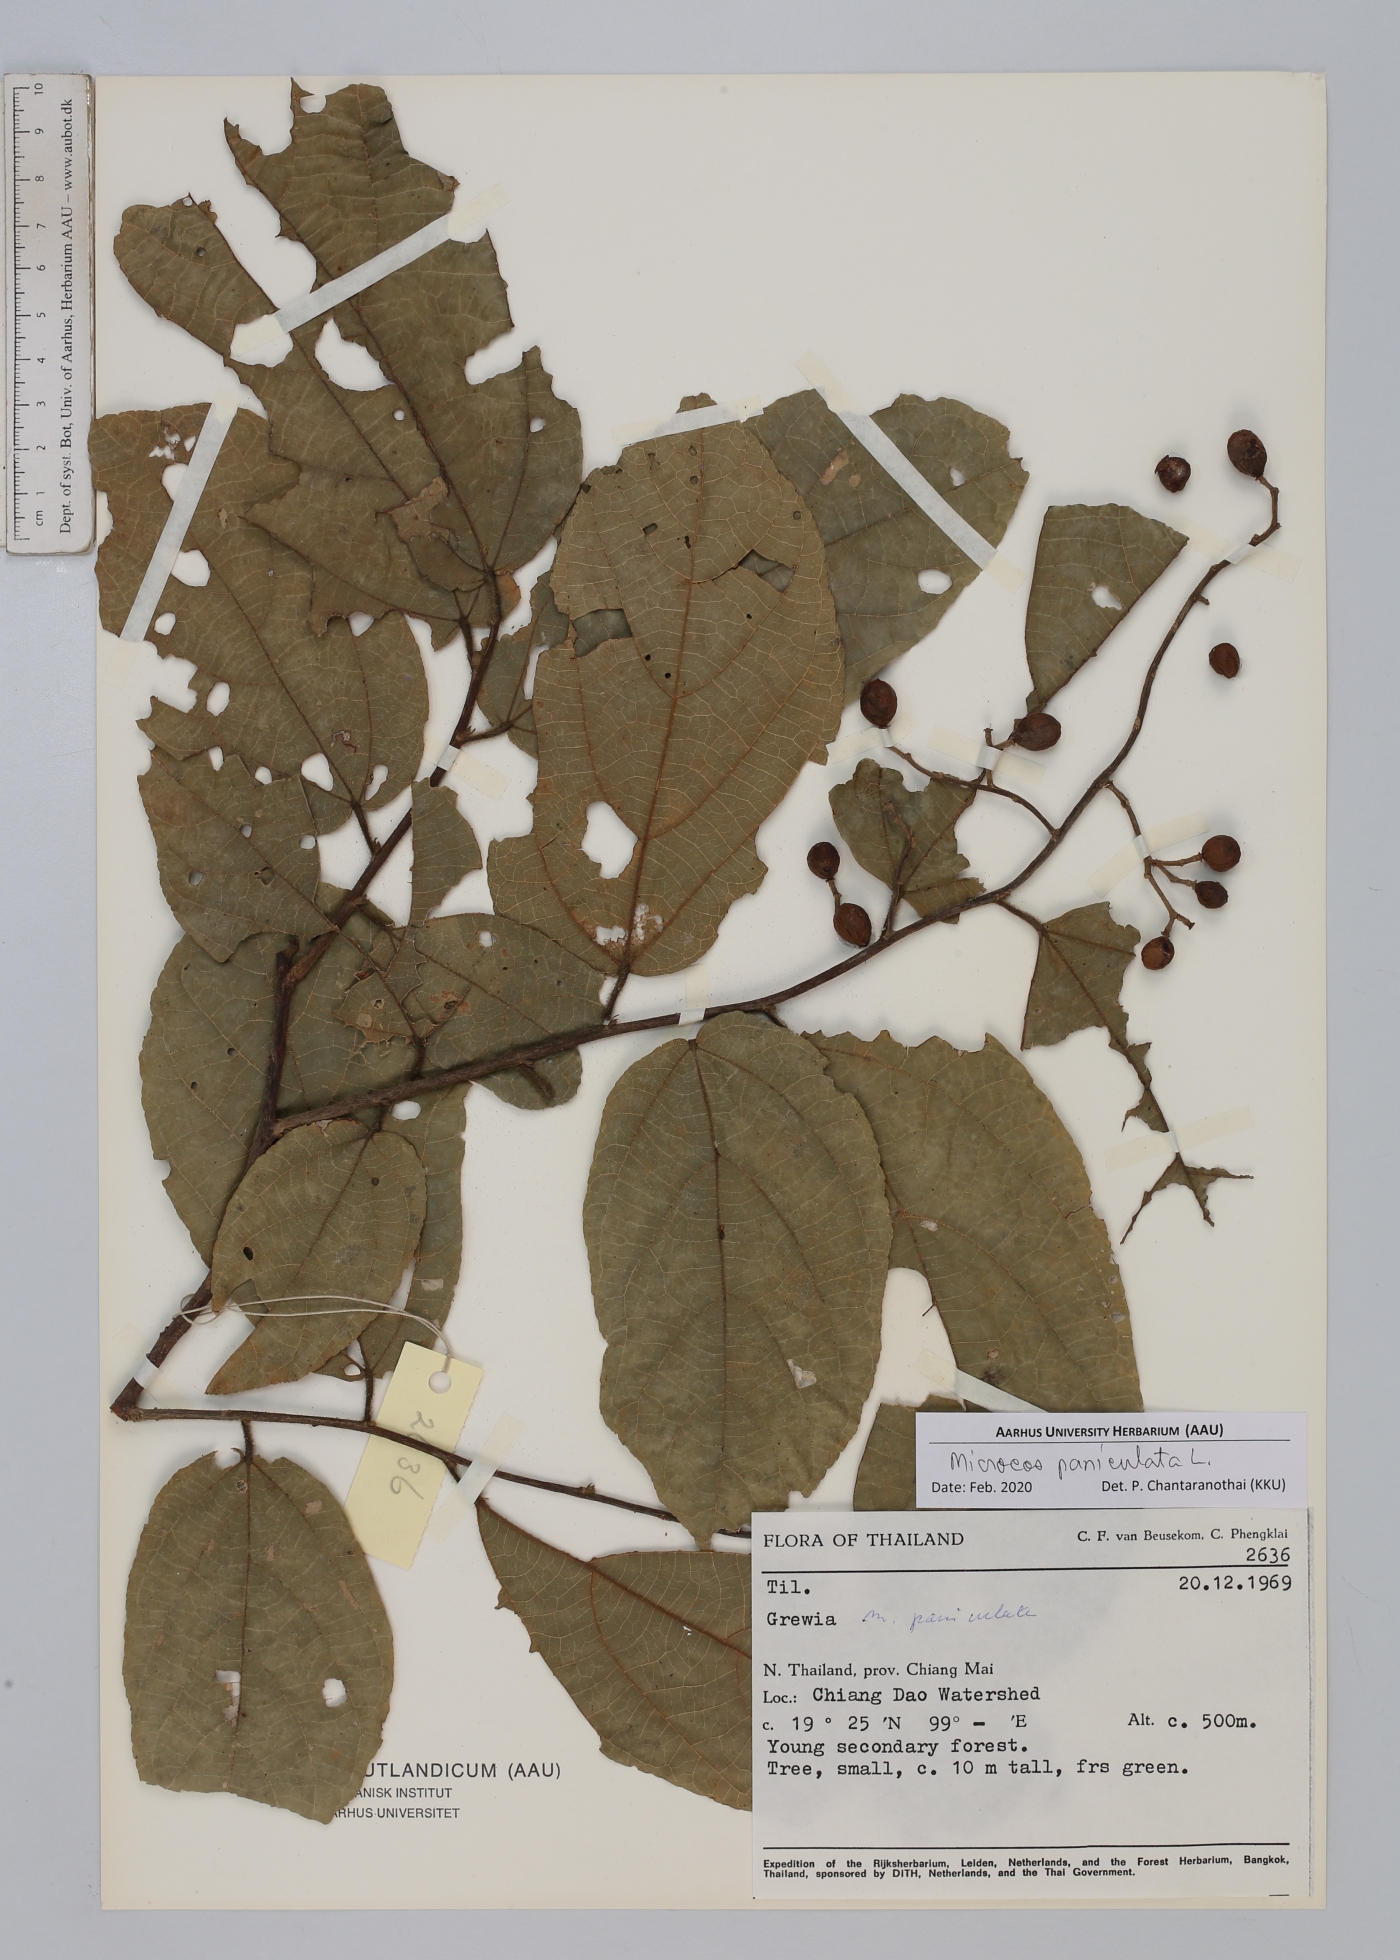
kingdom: Plantae
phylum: Tracheophyta
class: Magnoliopsida
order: Malvales
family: Malvaceae
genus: Microcos
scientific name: Microcos paniculata
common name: Microcos
